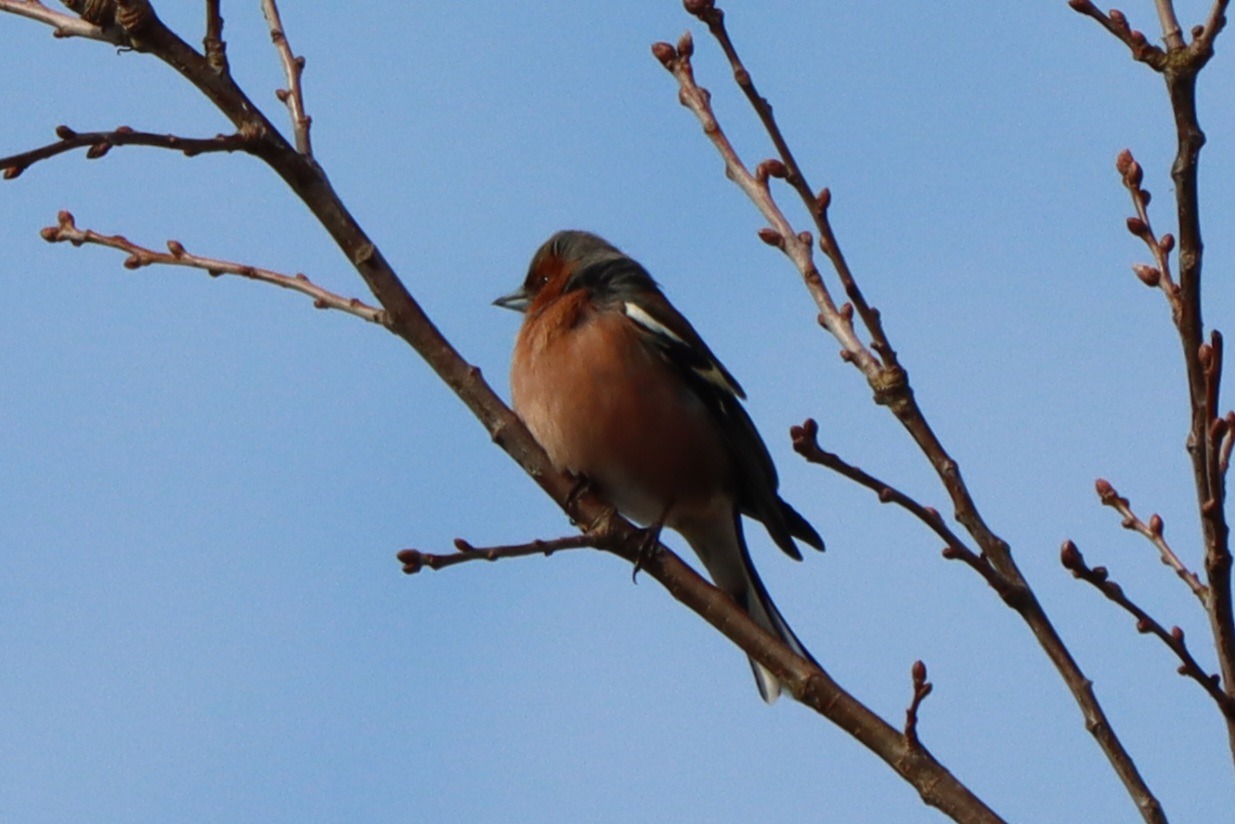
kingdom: Animalia
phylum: Chordata
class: Aves
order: Passeriformes
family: Fringillidae
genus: Fringilla
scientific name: Fringilla coelebs
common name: Bogfinke
